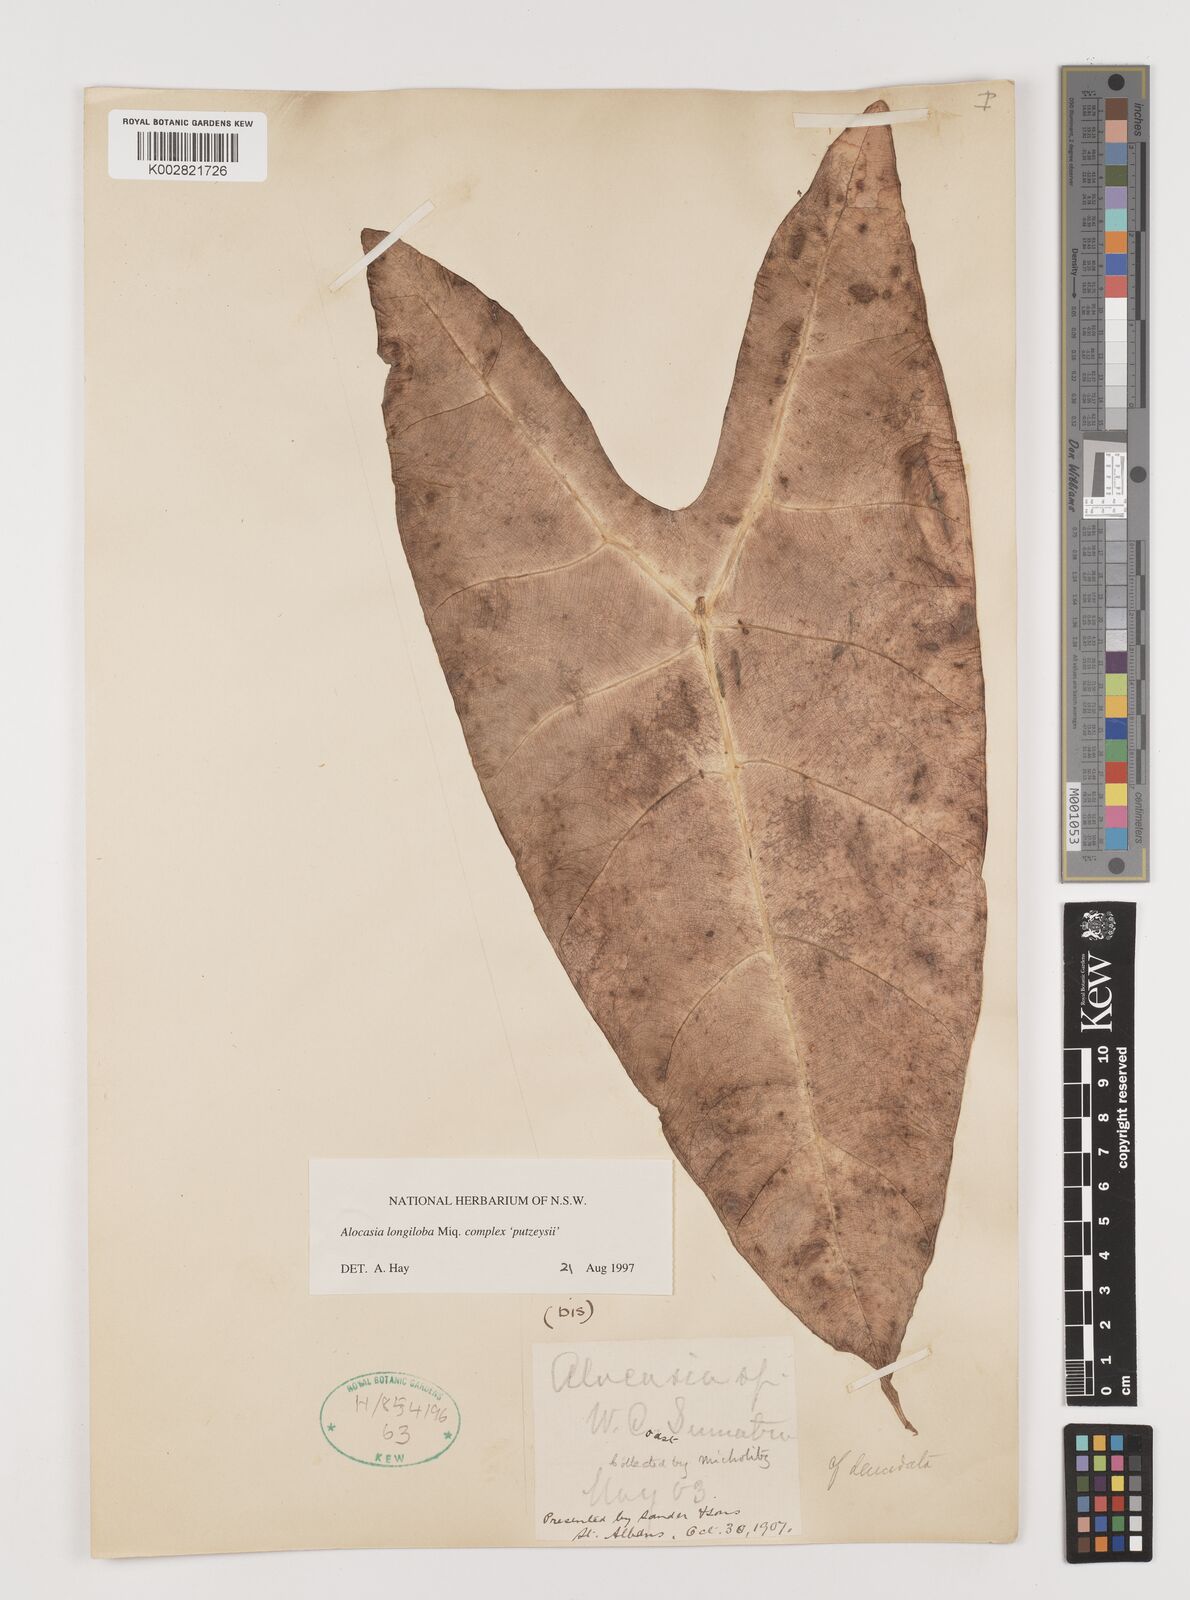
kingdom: Plantae
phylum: Tracheophyta
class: Liliopsida
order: Alismatales
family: Araceae
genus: Alocasia
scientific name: Alocasia longiloba
